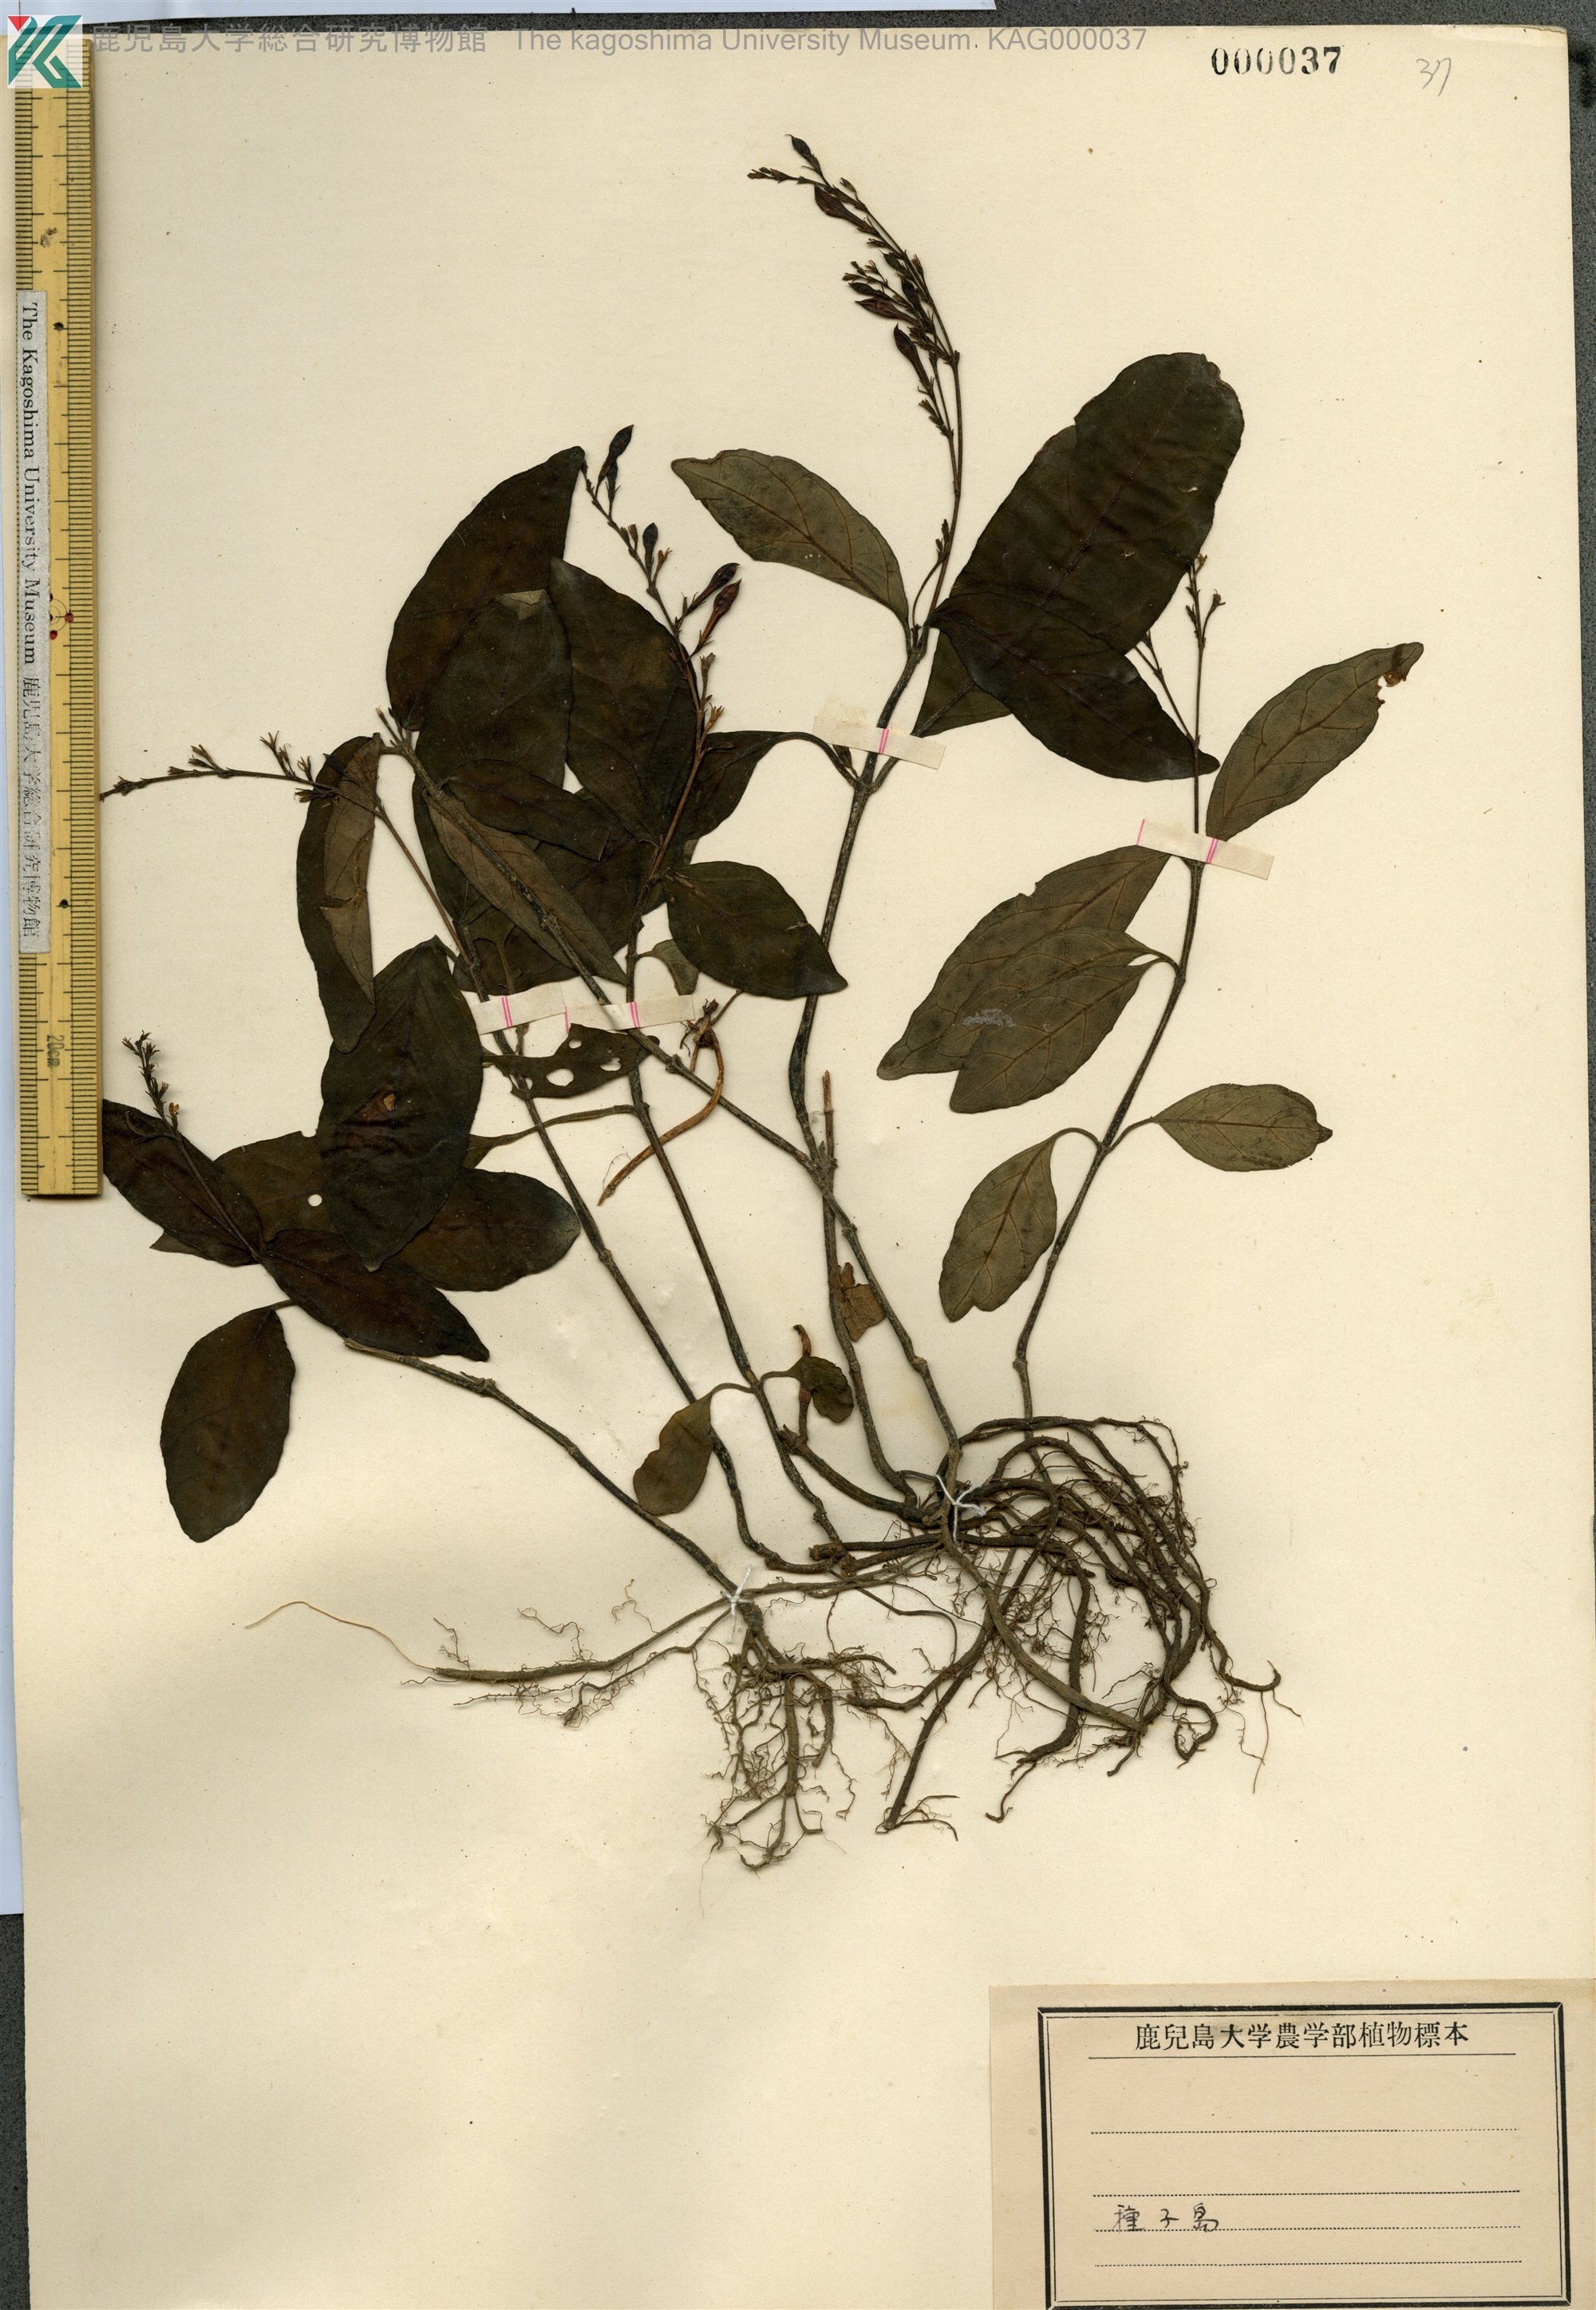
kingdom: Plantae
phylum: Tracheophyta
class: Magnoliopsida
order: Lamiales
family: Acanthaceae
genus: Codonacanthus
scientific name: Codonacanthus pauciflorus
